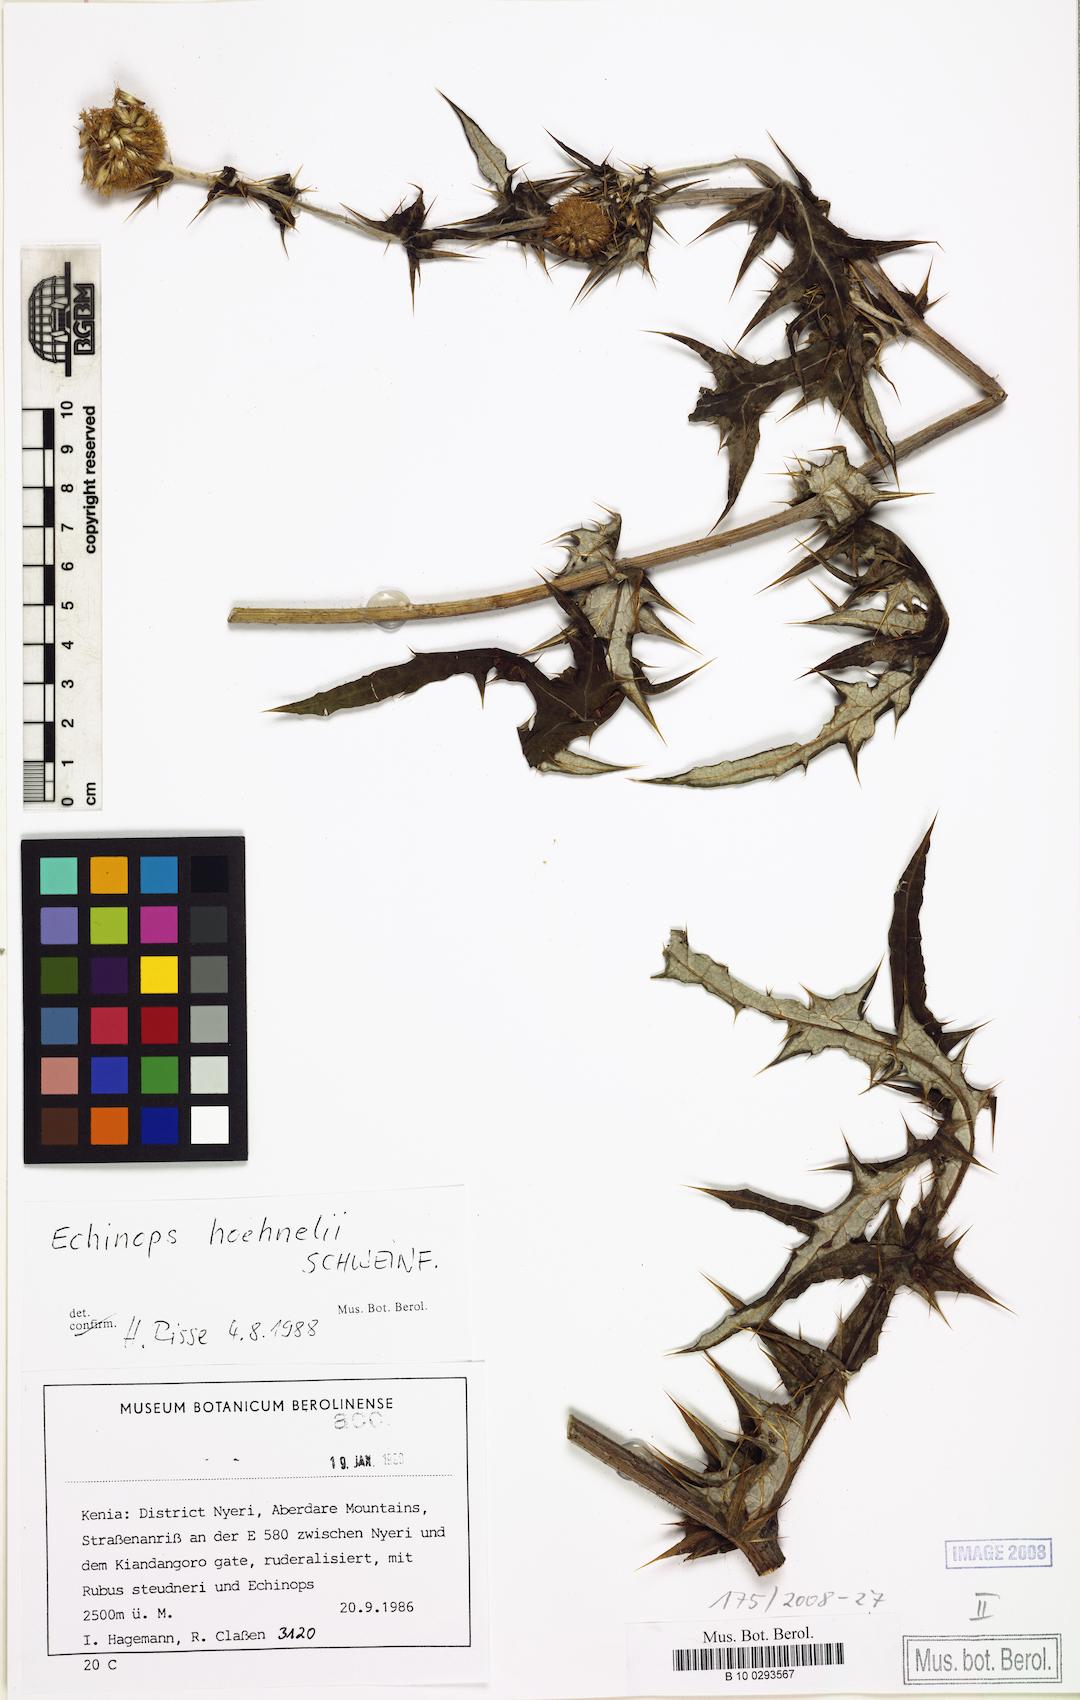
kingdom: Plantae
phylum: Tracheophyta
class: Magnoliopsida
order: Asterales
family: Asteraceae
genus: Echinops
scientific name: Echinops hoehnelii
